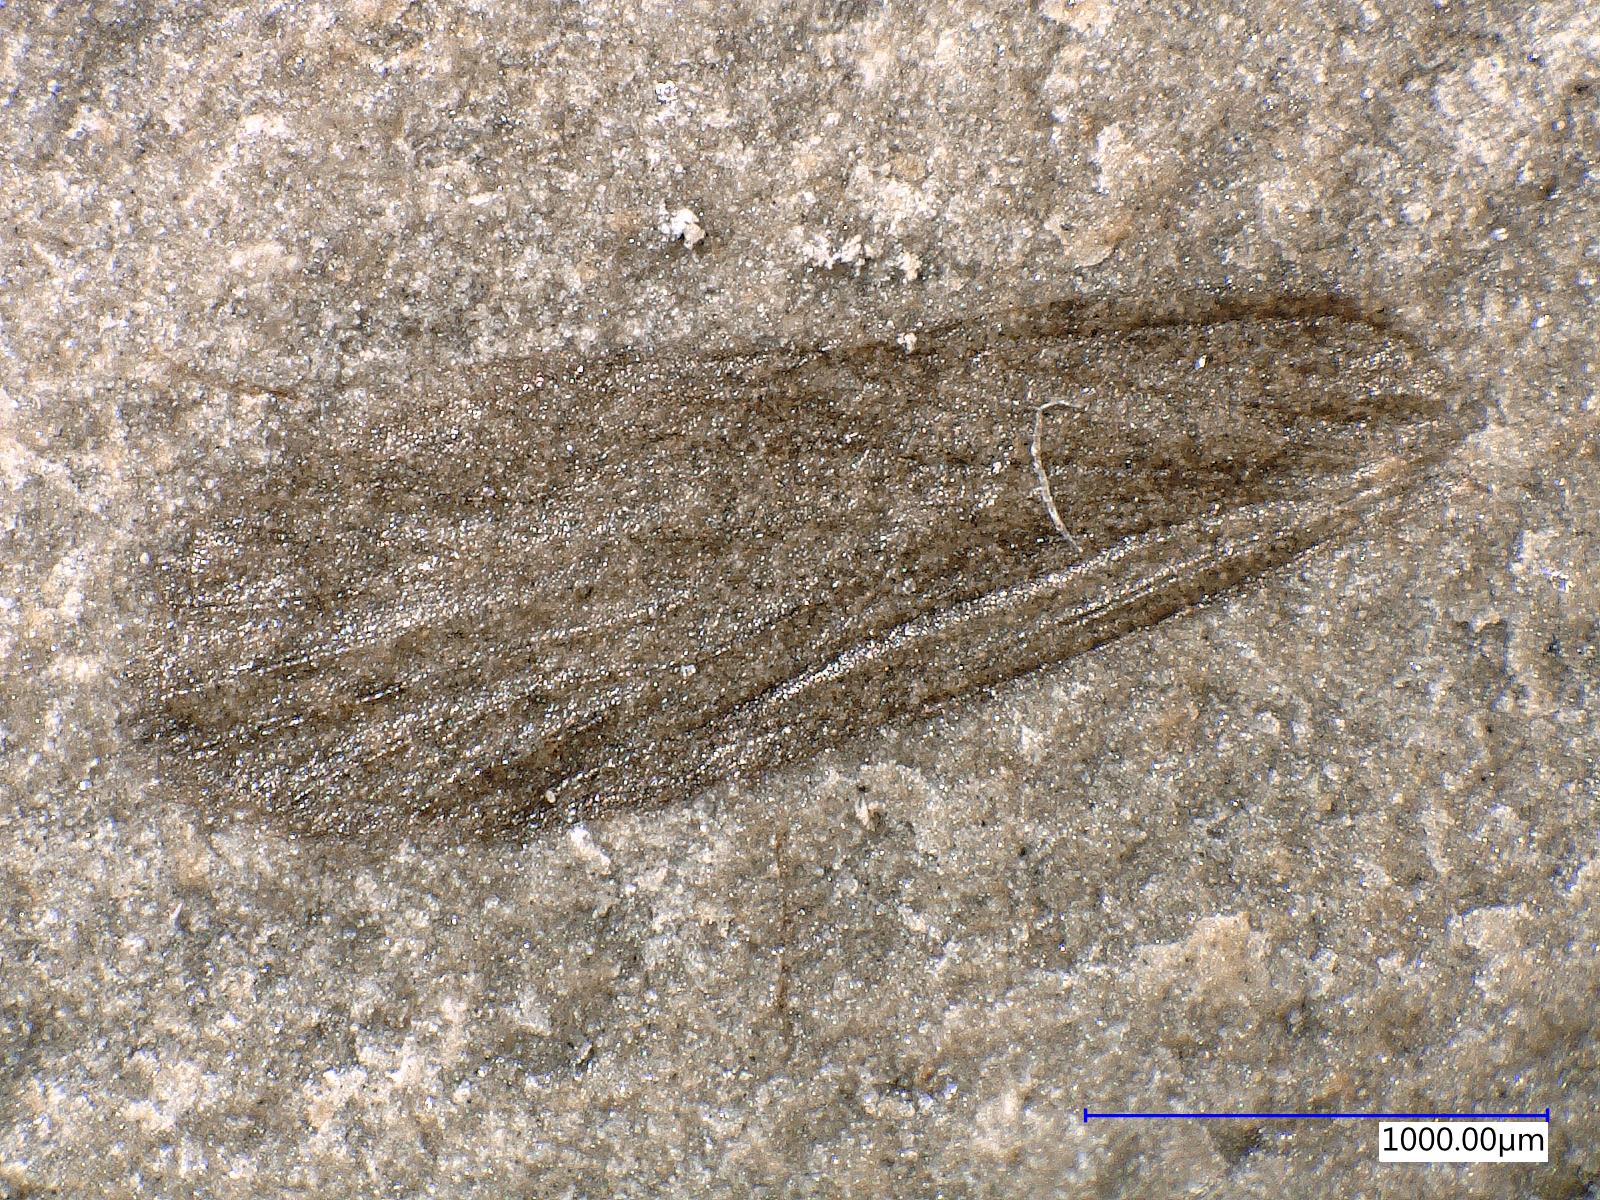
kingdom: Animalia
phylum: Arthropoda
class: Insecta
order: Trichoptera
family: Necrotauliidae
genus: Necrotaulius
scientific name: Necrotaulius Orthophlebia parvula
